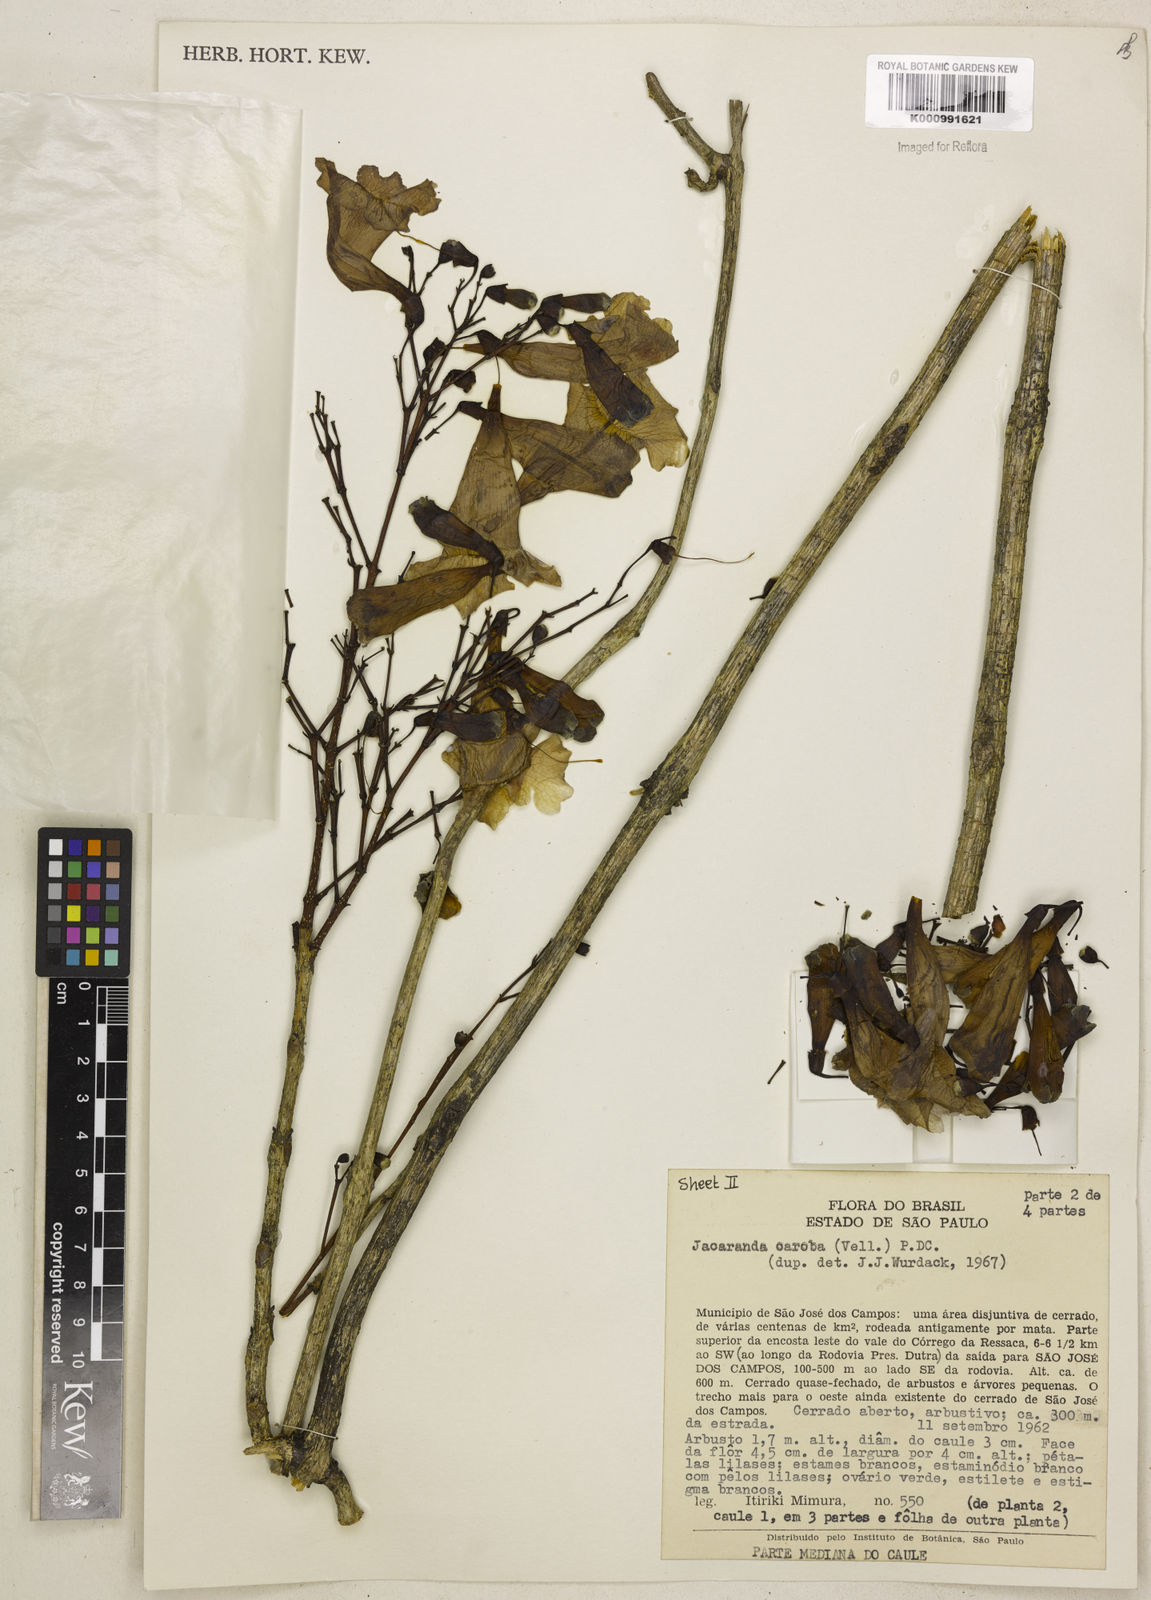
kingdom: Plantae
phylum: Tracheophyta
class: Magnoliopsida
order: Lamiales
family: Bignoniaceae
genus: Jacaranda
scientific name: Jacaranda caroba
